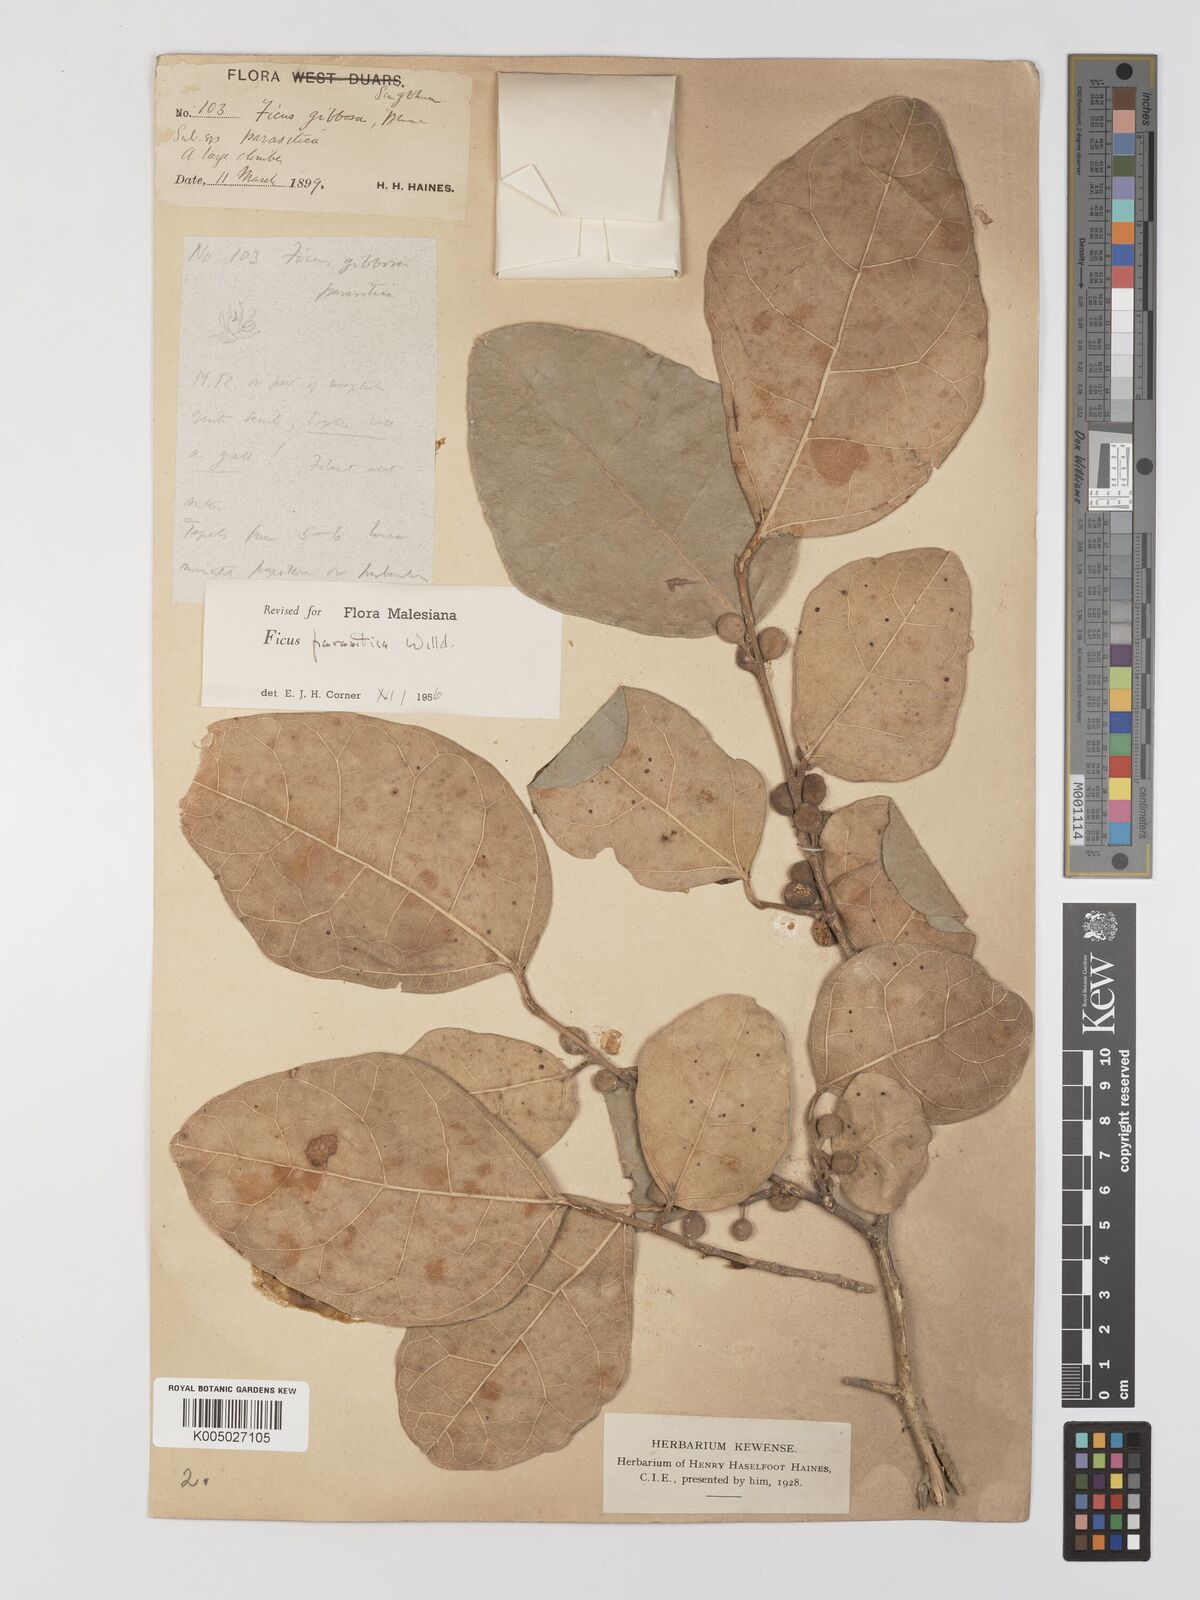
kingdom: Plantae
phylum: Tracheophyta
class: Magnoliopsida
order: Rosales
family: Moraceae
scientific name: Moraceae
